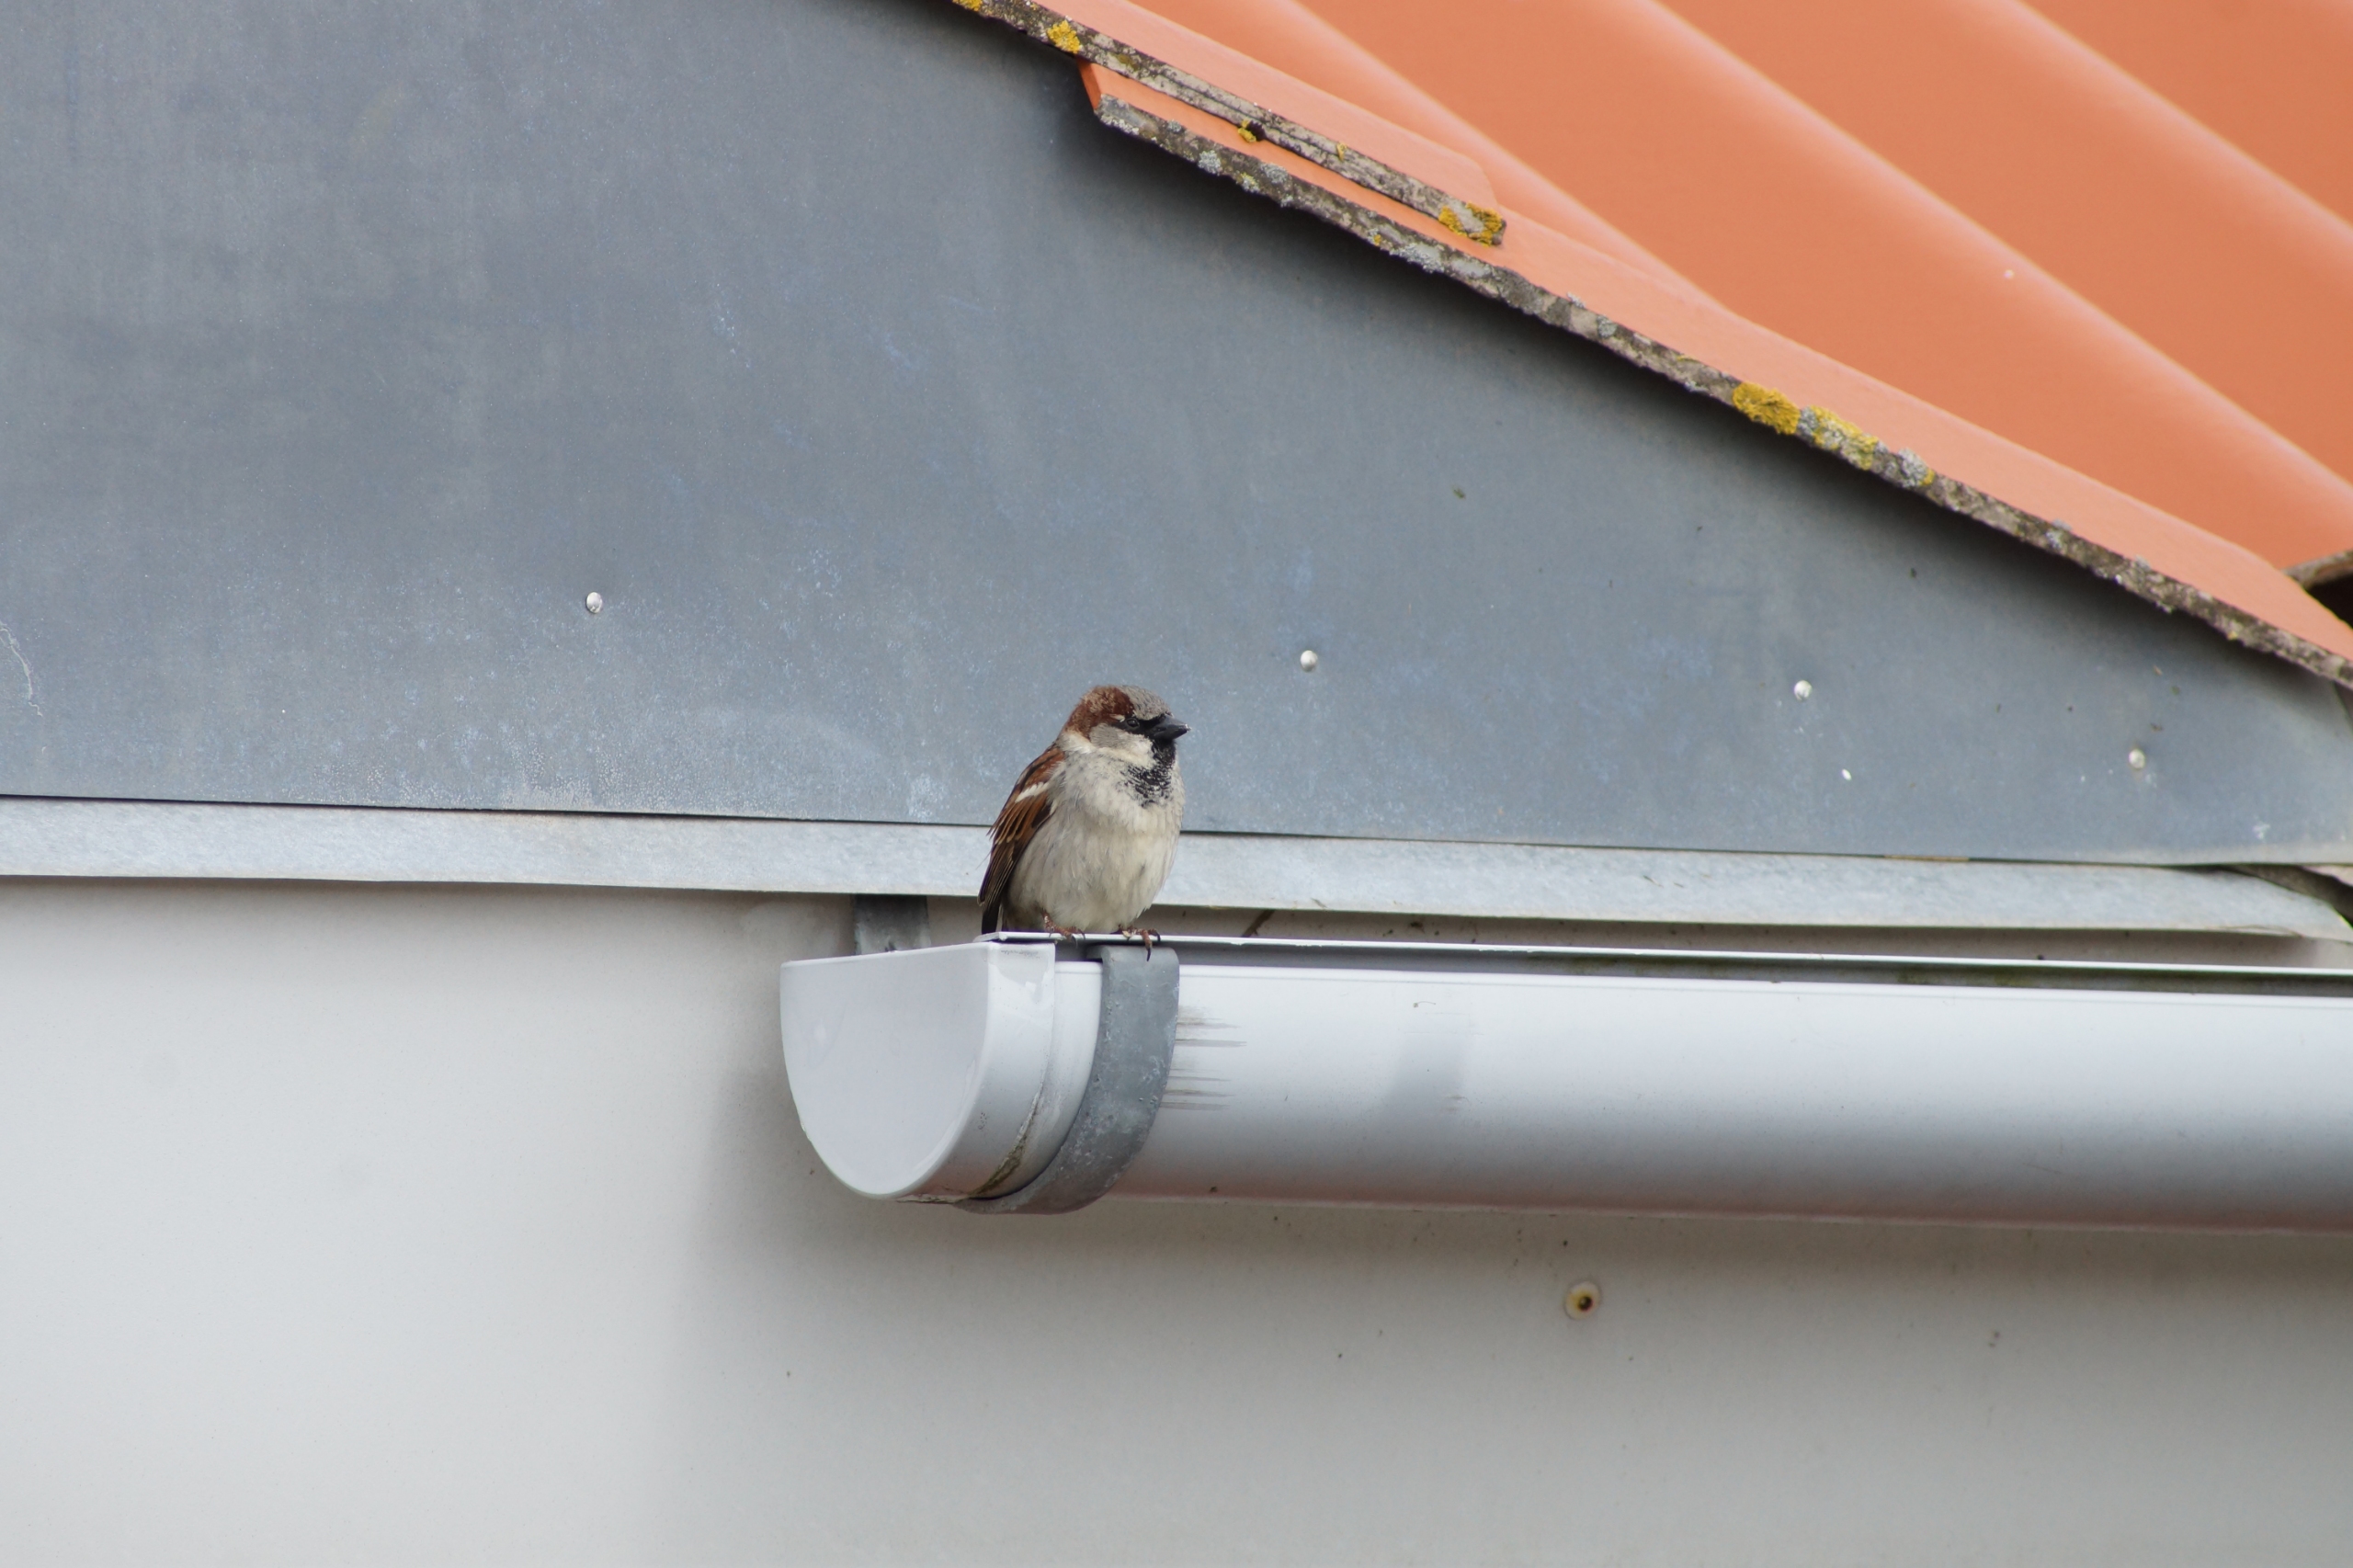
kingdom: Animalia
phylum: Chordata
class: Aves
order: Passeriformes
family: Passeridae
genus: Passer
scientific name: Passer domesticus
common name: Gråspurv
